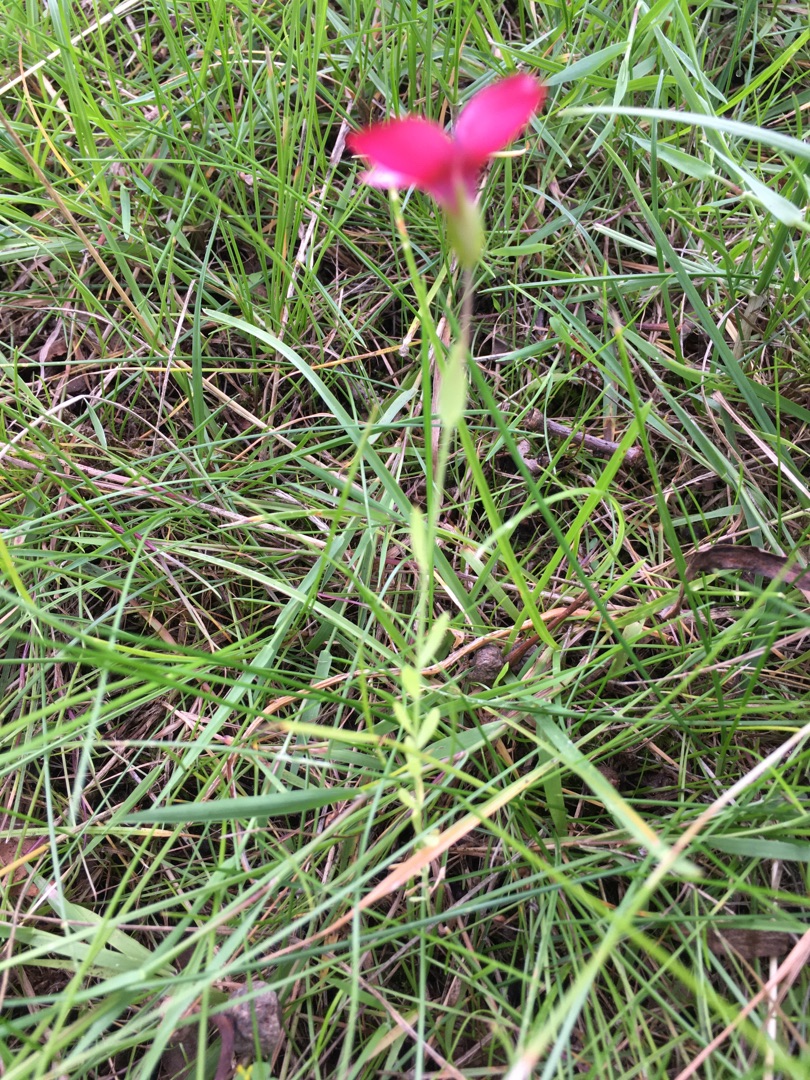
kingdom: Plantae
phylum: Tracheophyta
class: Magnoliopsida
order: Malpighiales
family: Linaceae
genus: Linum
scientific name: Linum grandiflorum
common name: Rød hør
